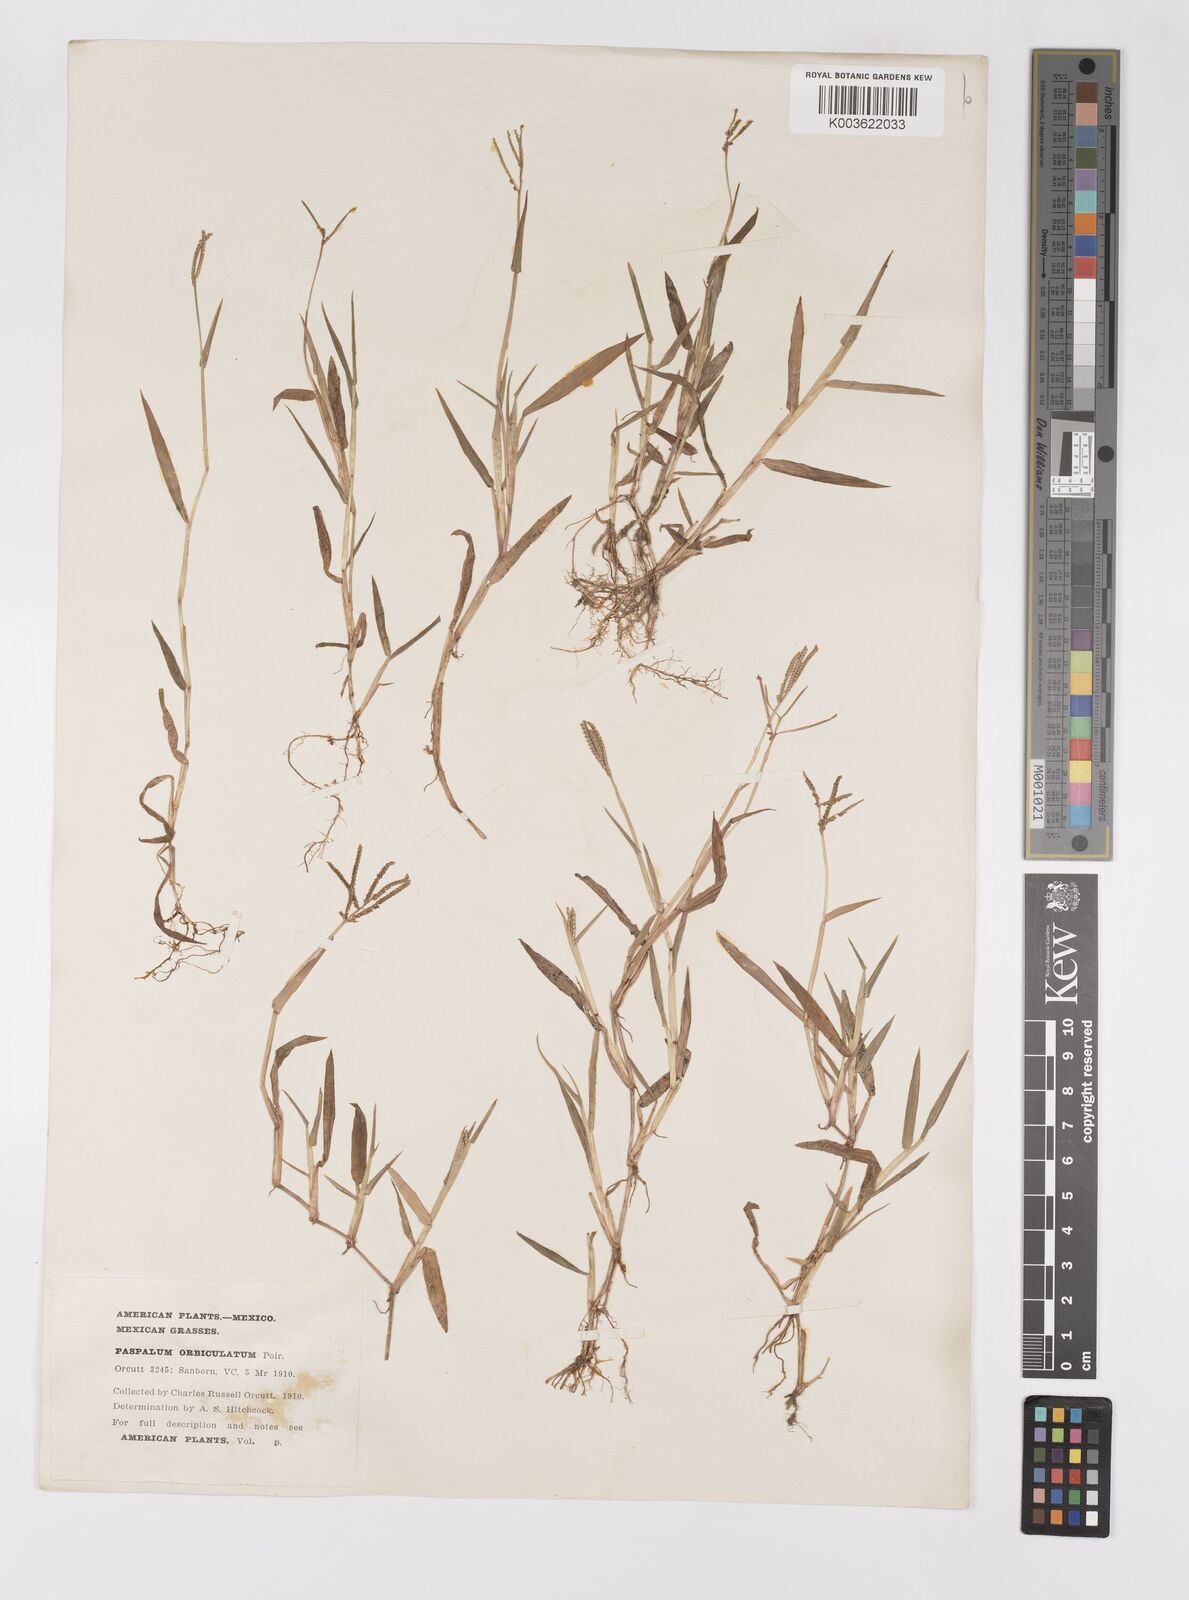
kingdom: Plantae
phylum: Tracheophyta
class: Liliopsida
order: Poales
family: Poaceae
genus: Paspalum
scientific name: Paspalum orbiculatum
